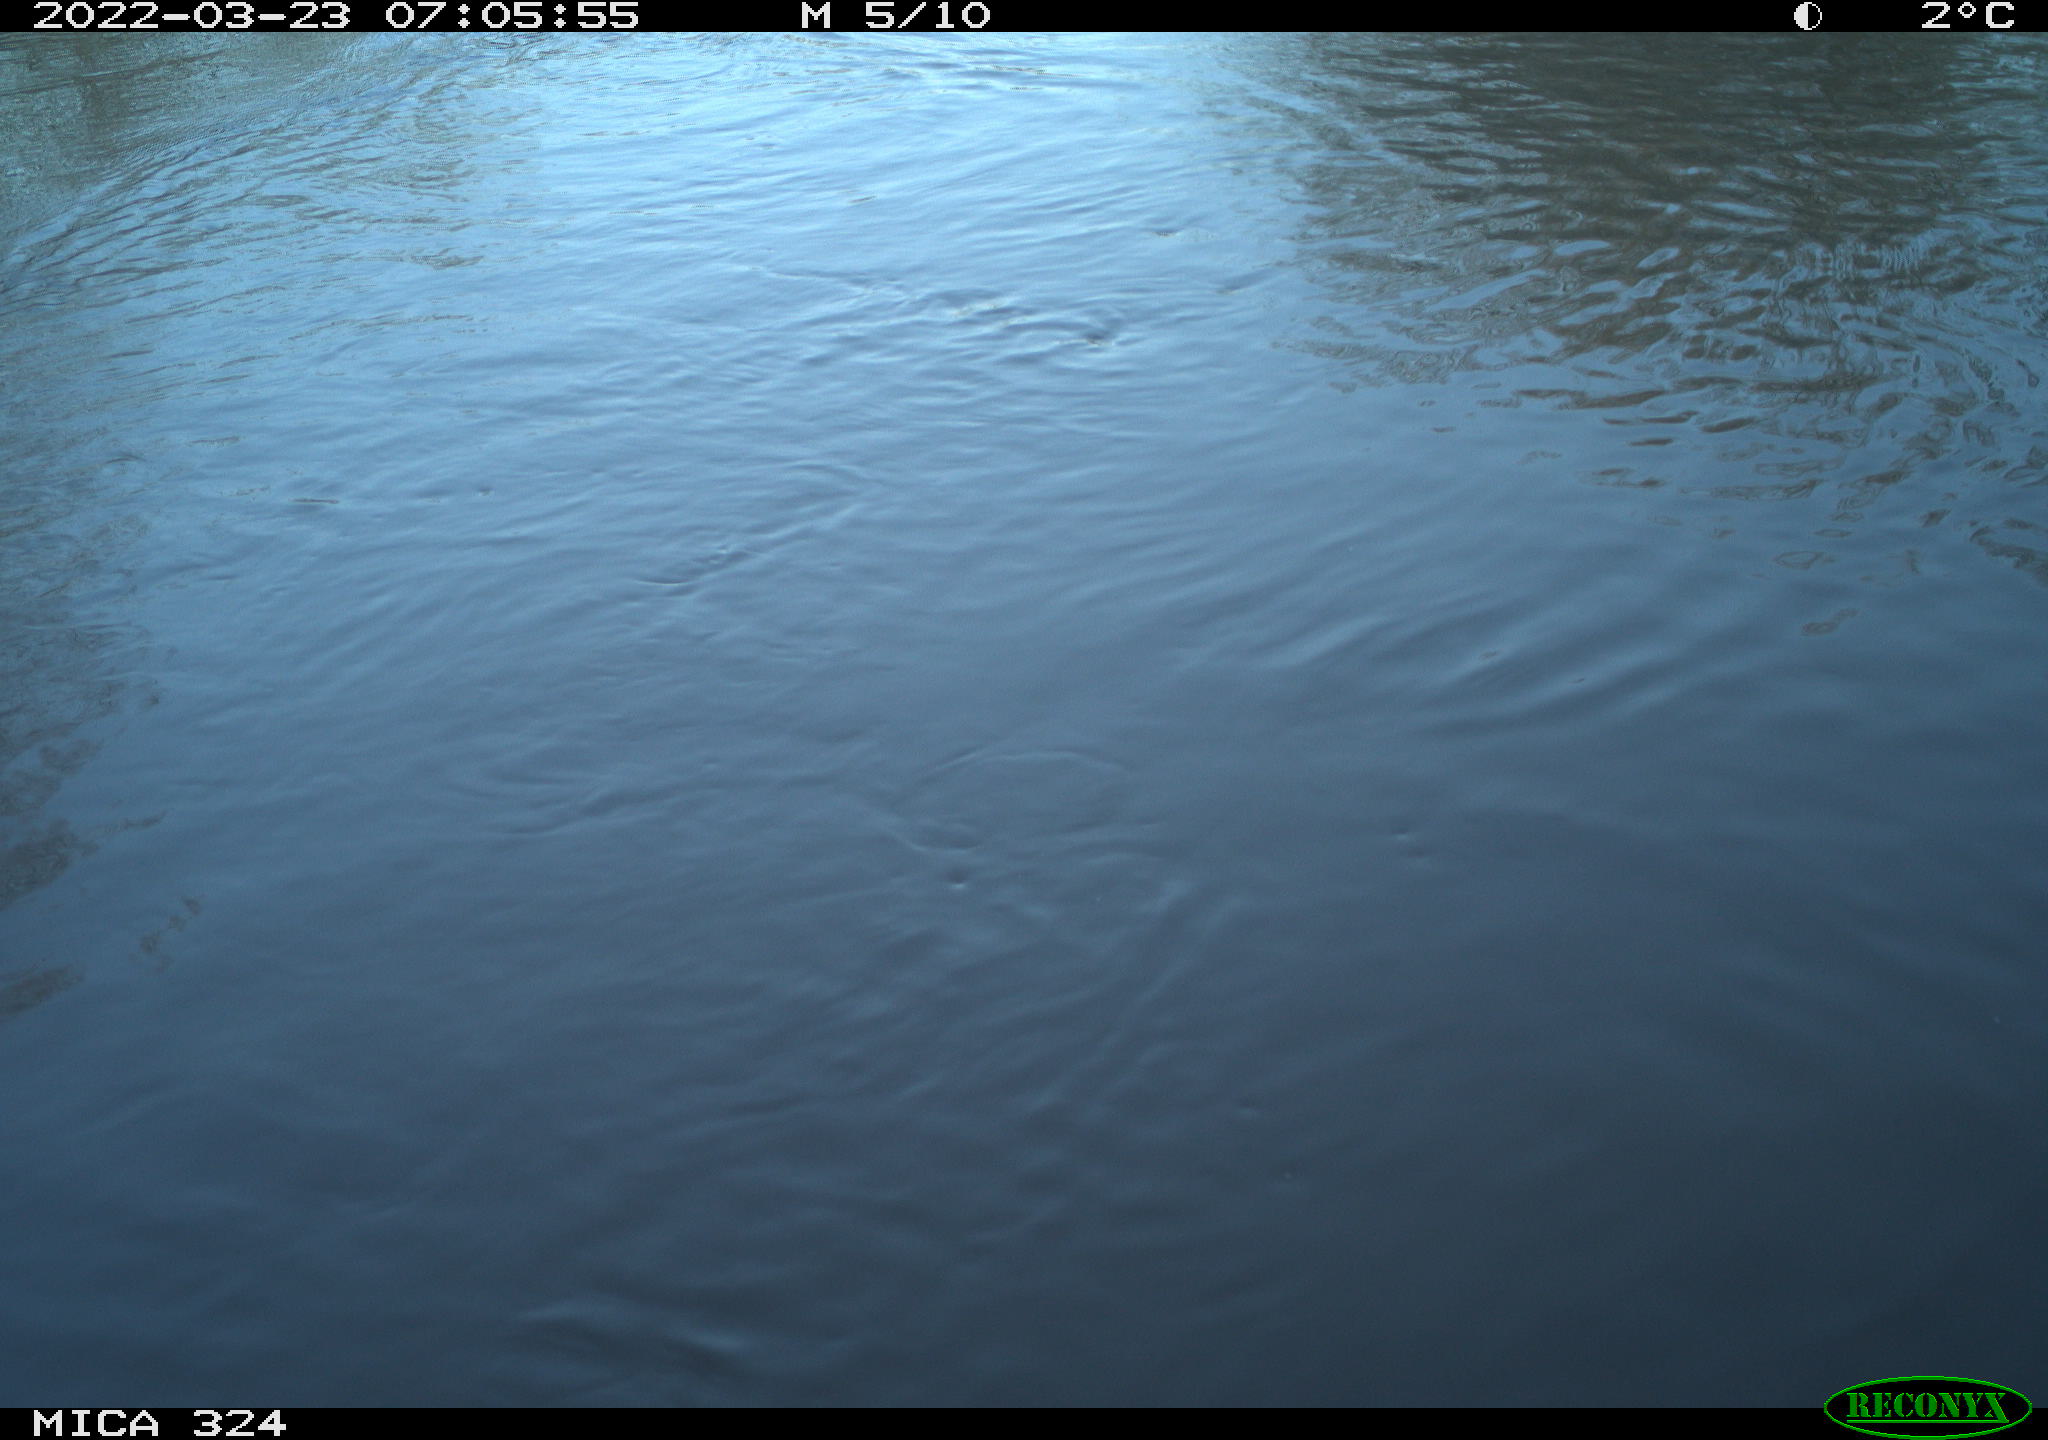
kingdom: Animalia
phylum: Chordata
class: Mammalia
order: Rodentia
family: Cricetidae
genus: Ondatra
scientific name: Ondatra zibethicus
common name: Muskrat
